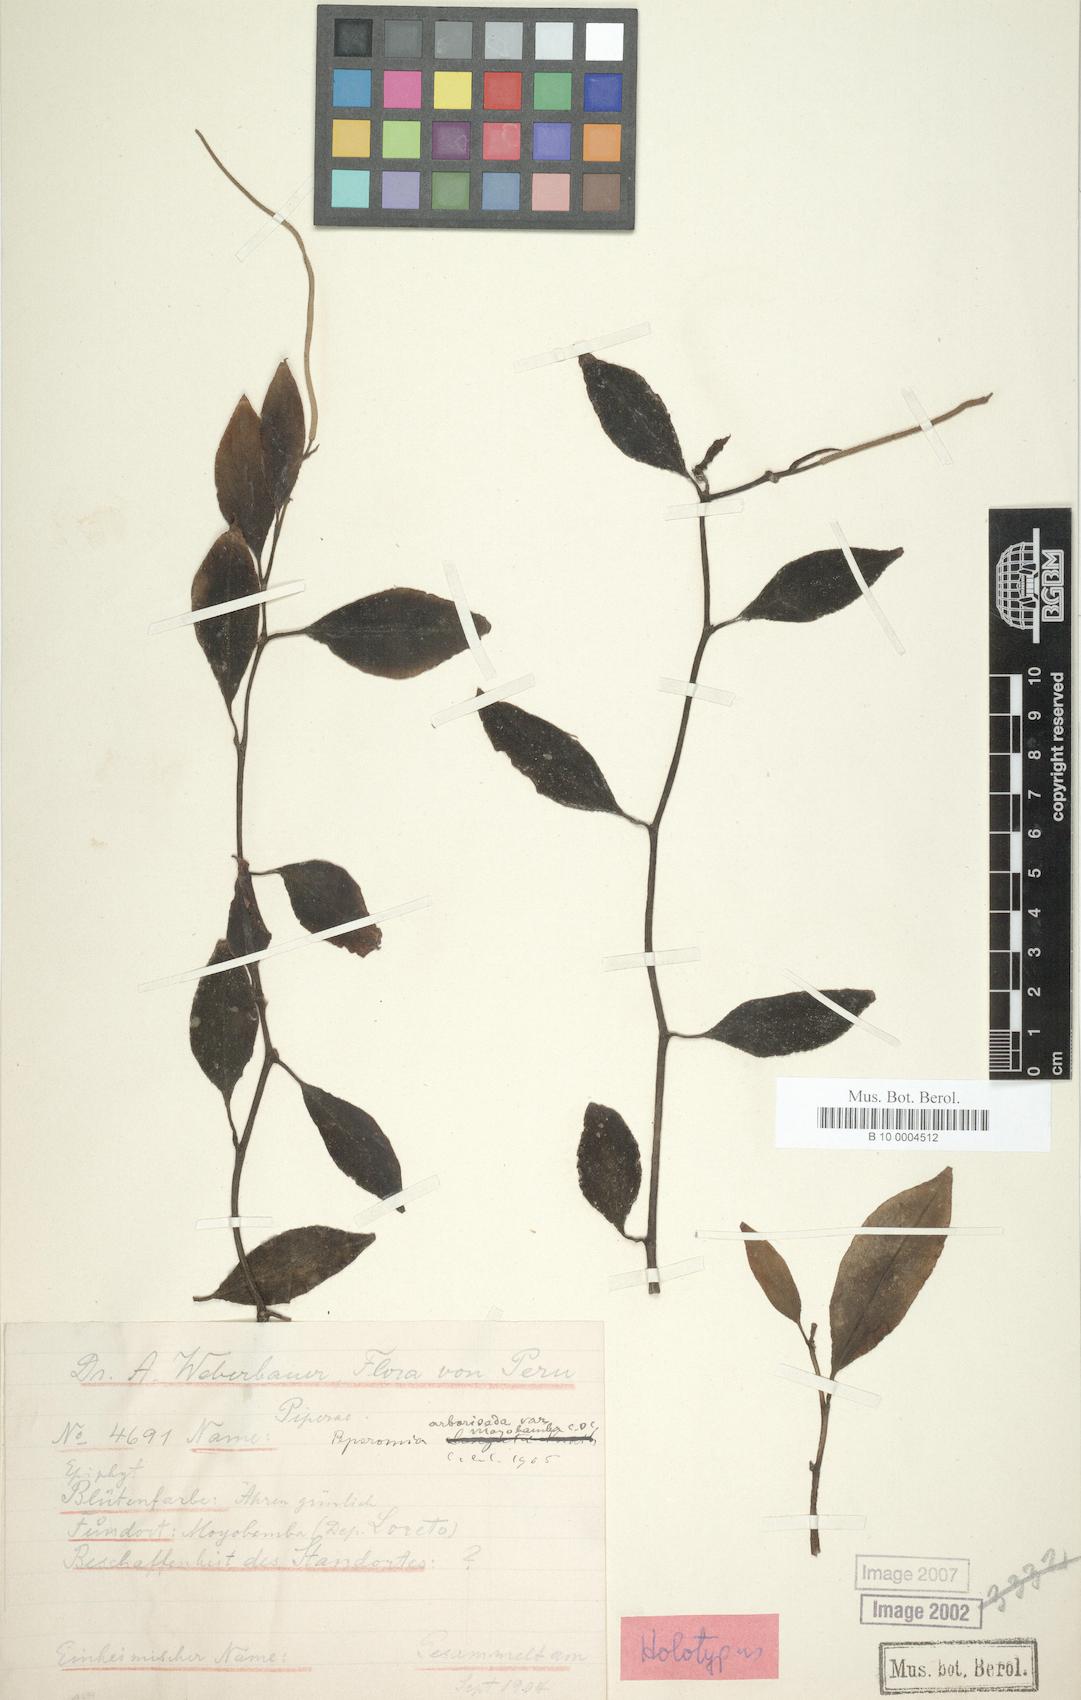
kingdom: Plantae
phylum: Tracheophyta
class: Magnoliopsida
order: Piperales
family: Piperaceae
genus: Peperomia
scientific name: Peperomia arboriseda
